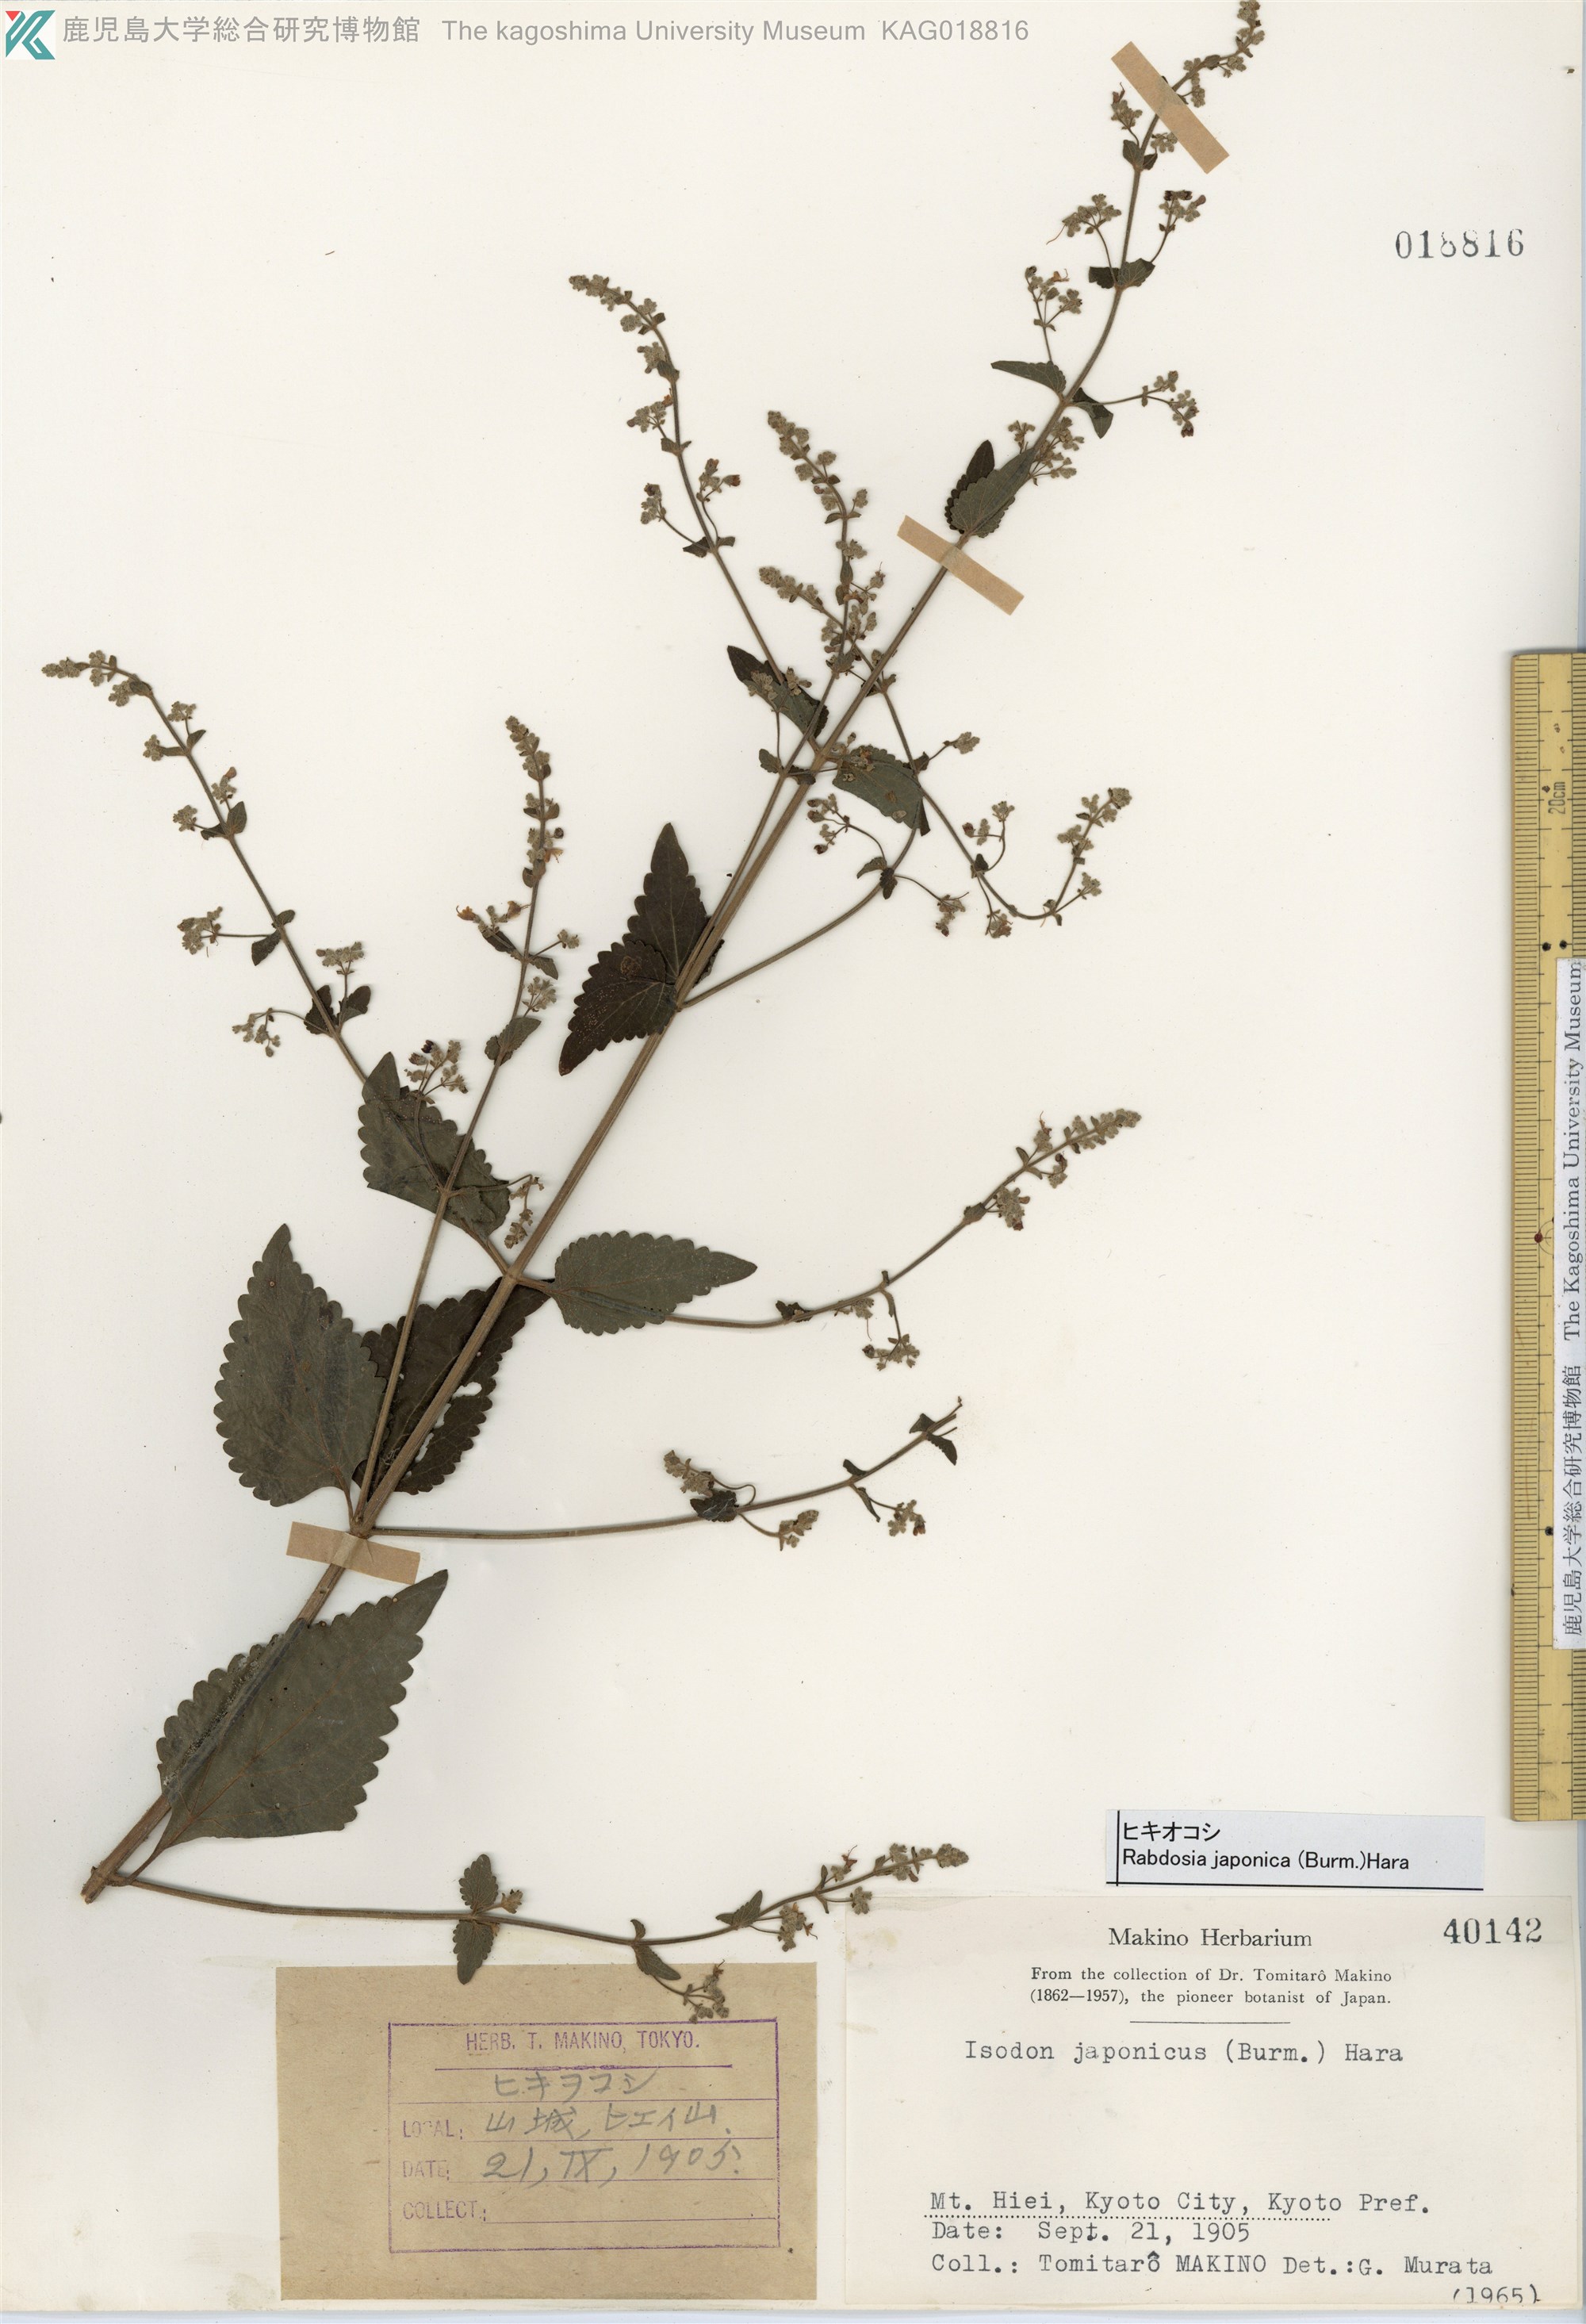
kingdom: Plantae
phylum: Tracheophyta
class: Magnoliopsida
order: Lamiales
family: Lamiaceae
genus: Isodon
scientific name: Isodon japonicus
